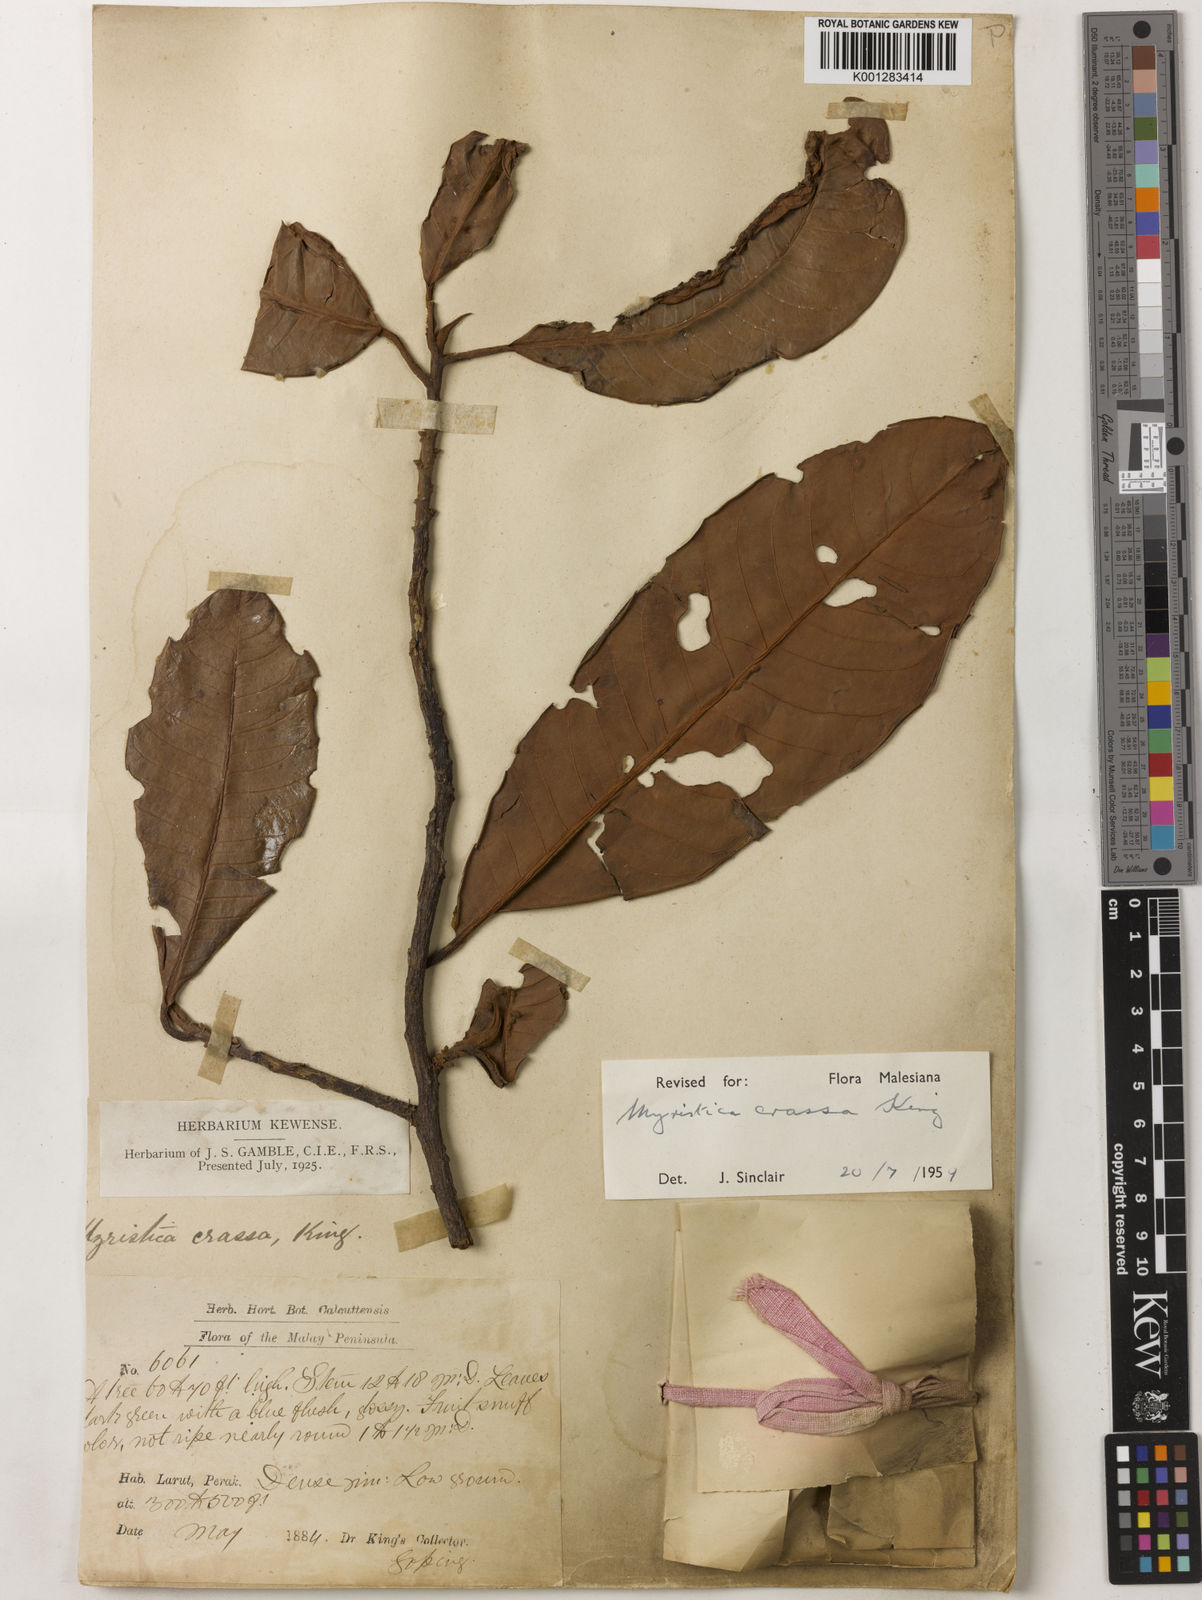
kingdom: Plantae
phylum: Tracheophyta
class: Magnoliopsida
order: Magnoliales
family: Myristicaceae
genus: Myristica
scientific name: Myristica crassa
